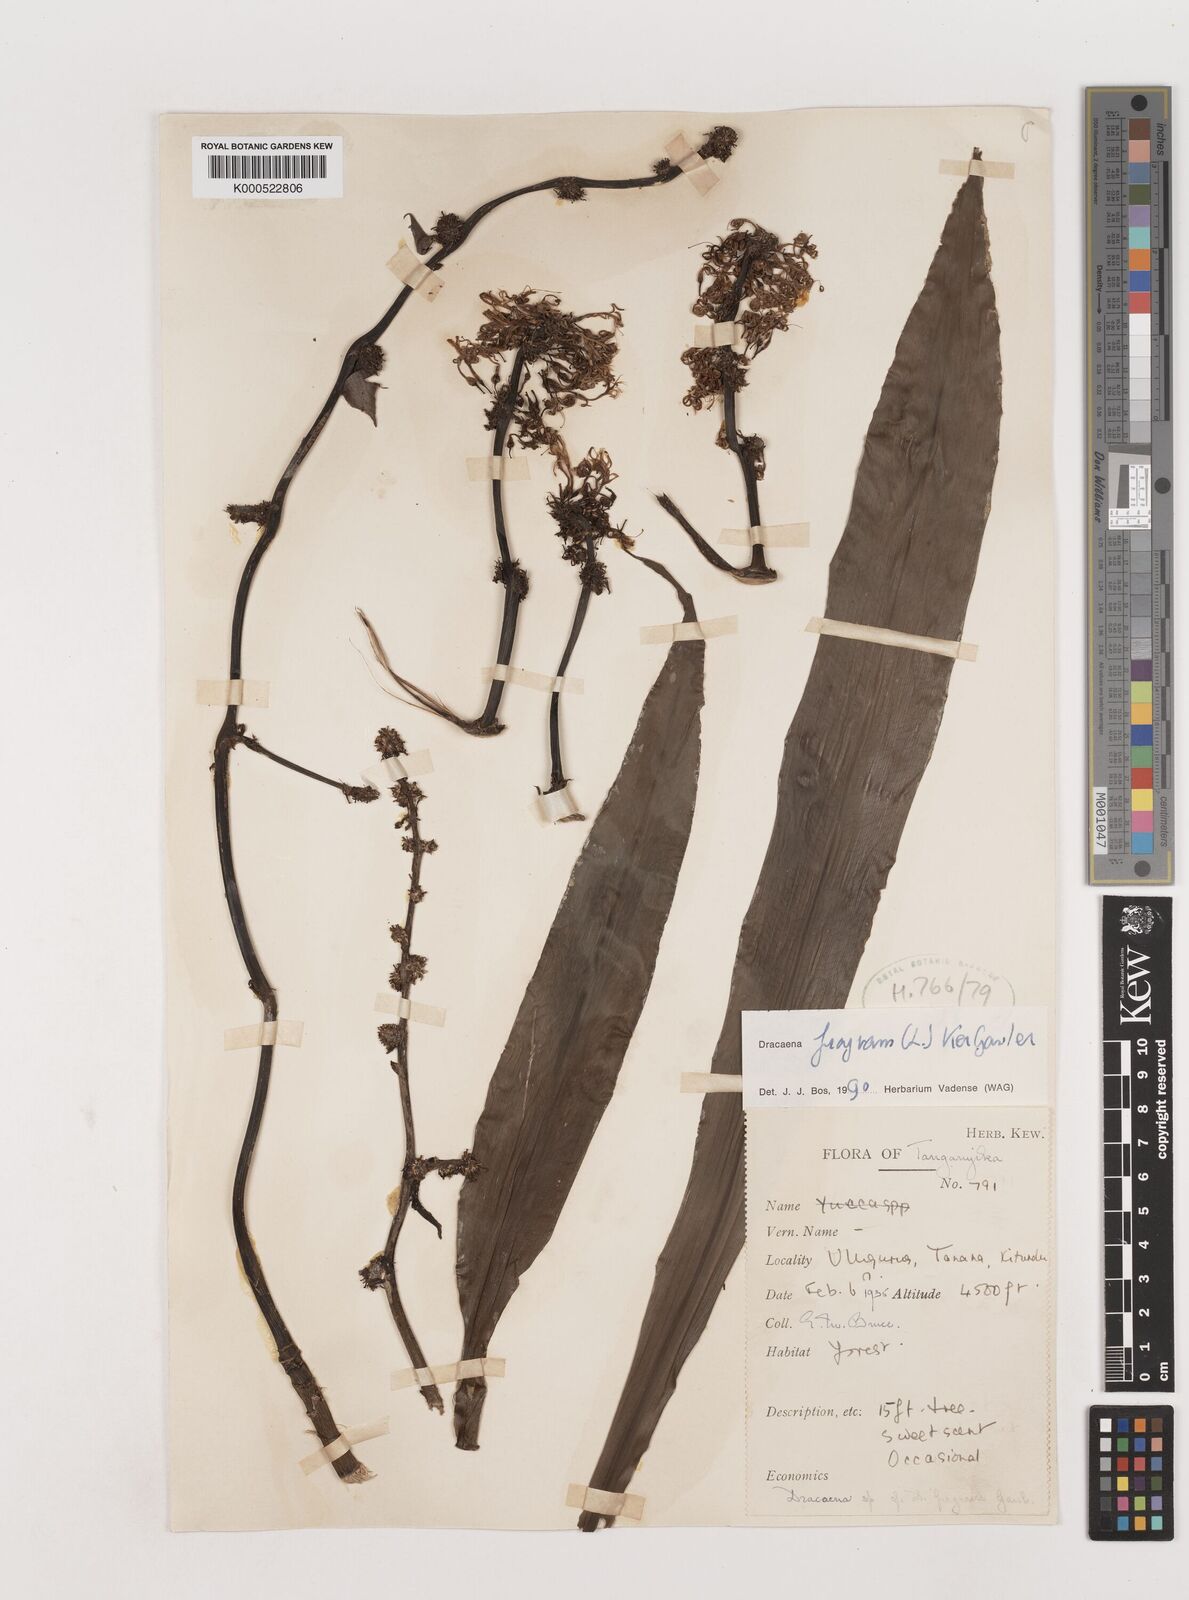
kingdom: Plantae
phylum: Tracheophyta
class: Liliopsida
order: Asparagales
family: Asparagaceae
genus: Dracaena
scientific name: Dracaena fragrans
